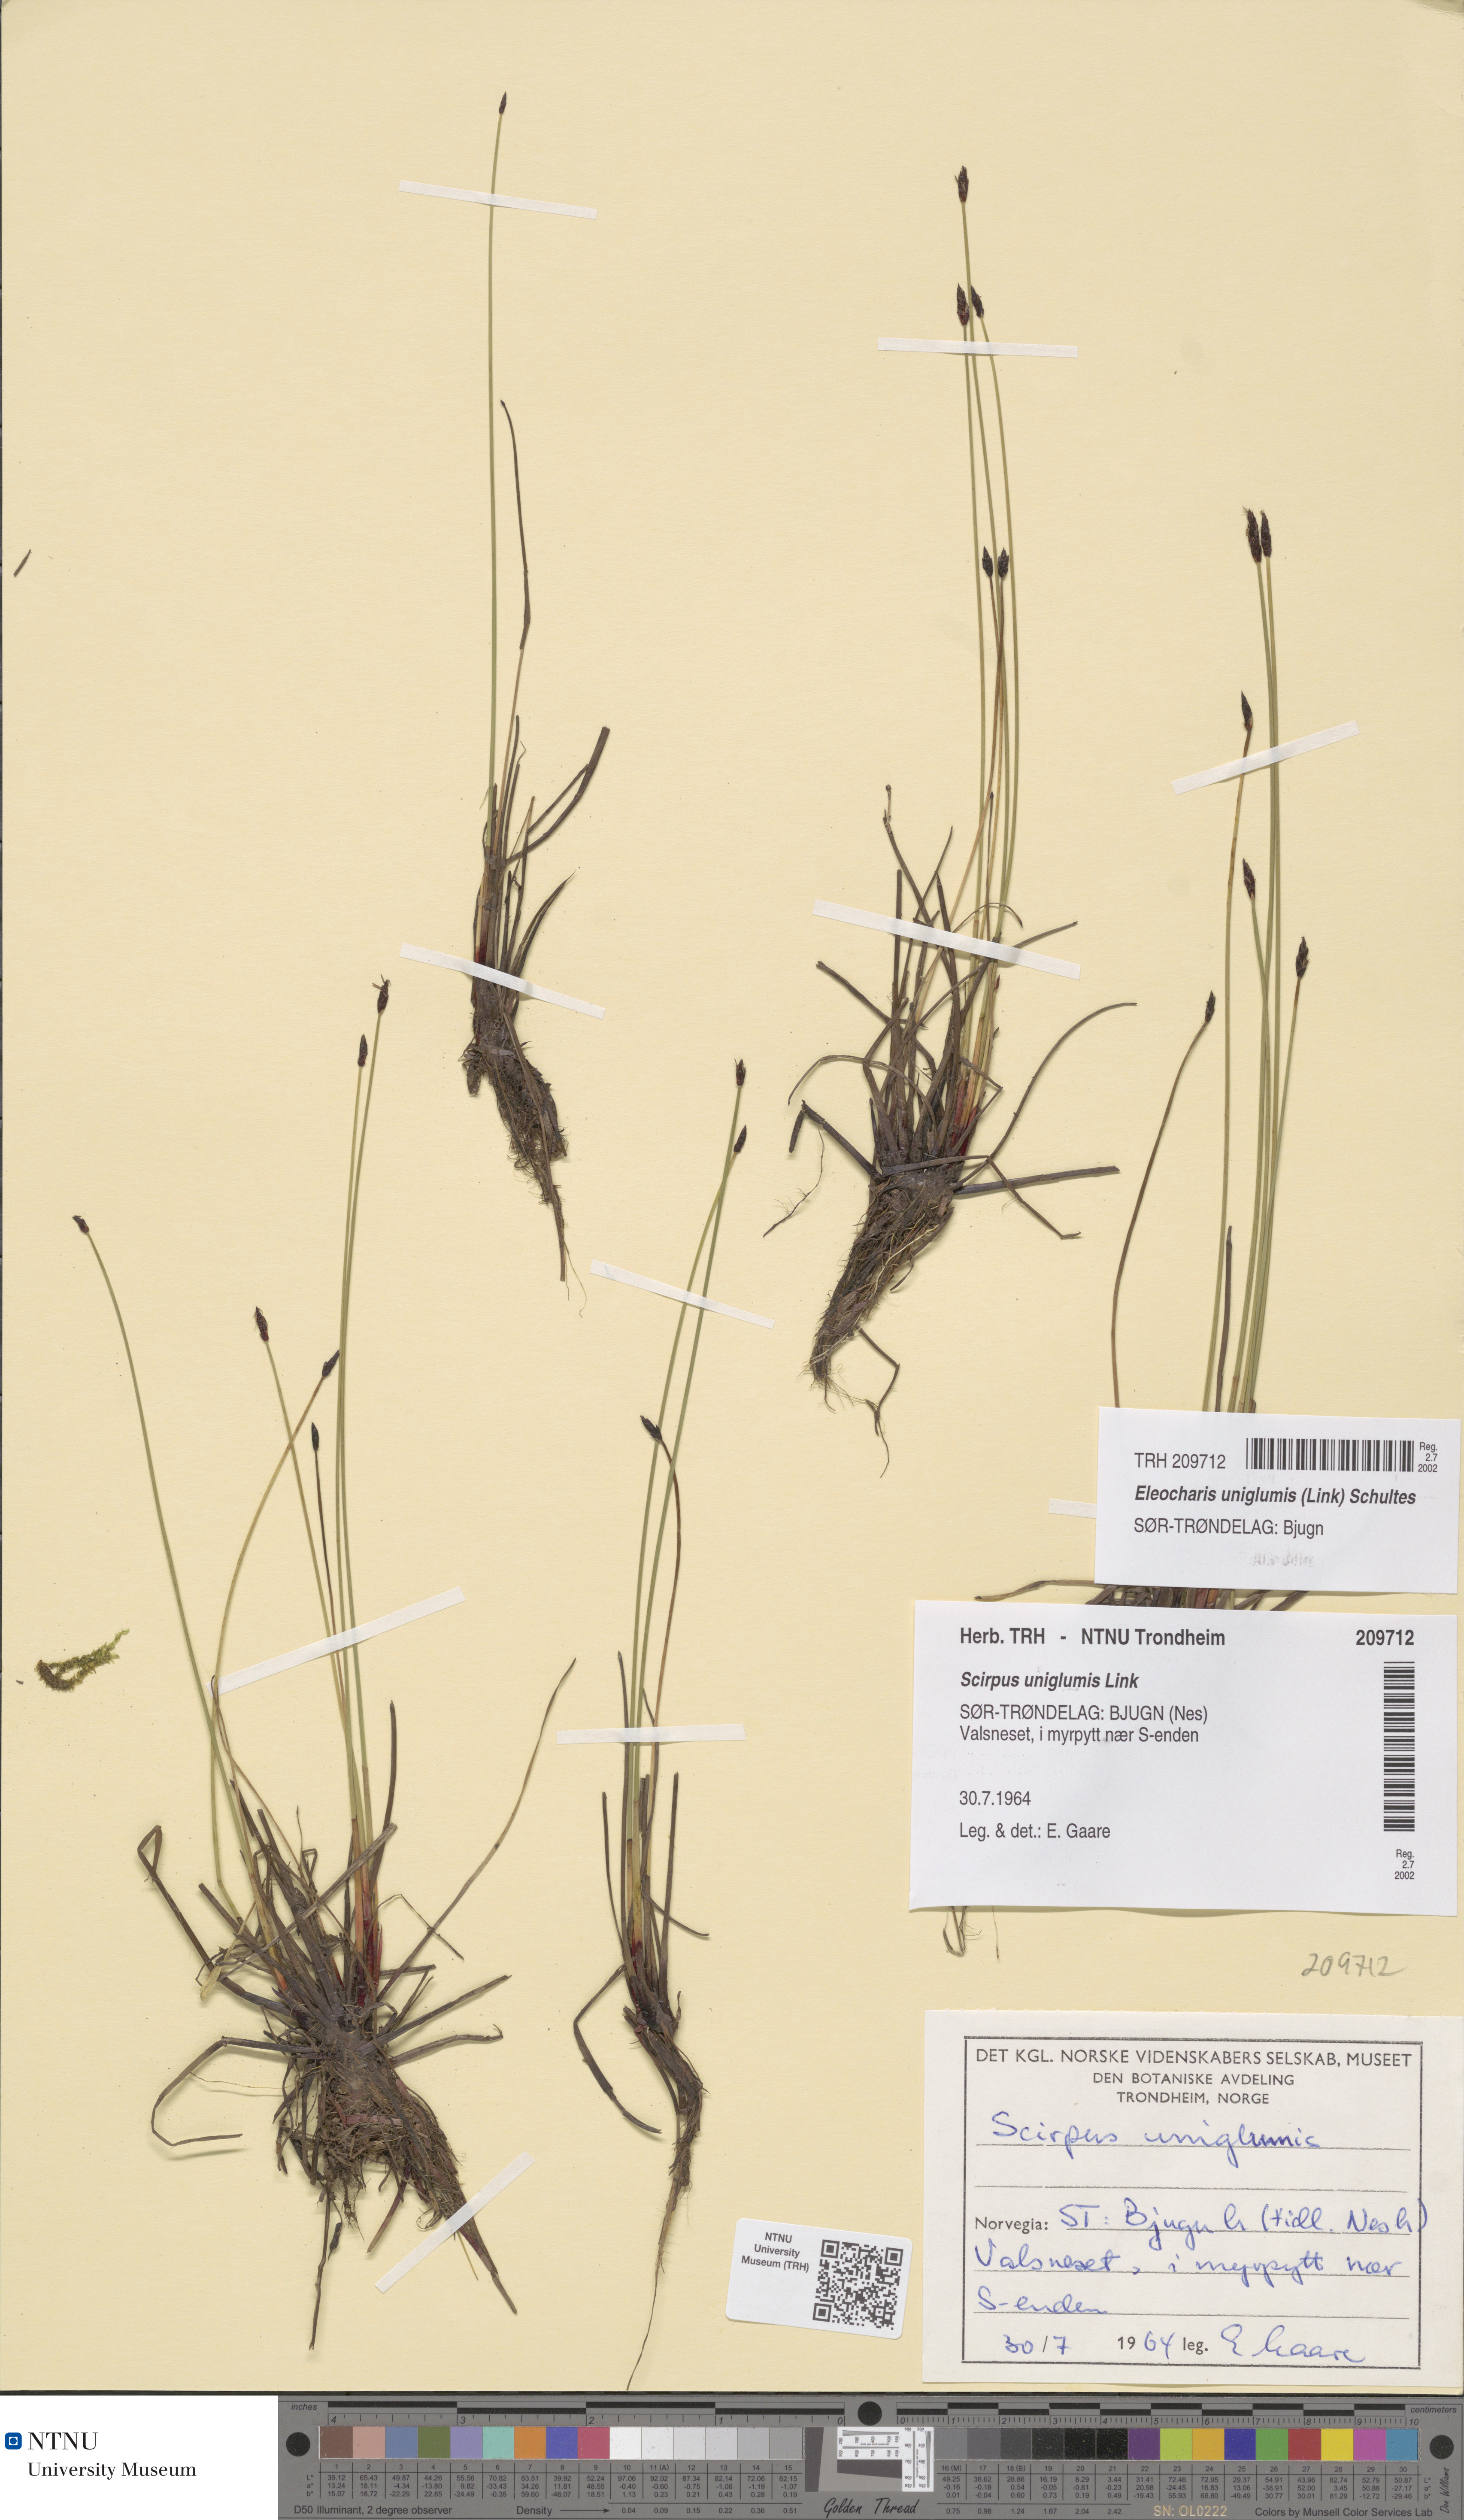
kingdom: Plantae
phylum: Tracheophyta
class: Liliopsida
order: Poales
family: Cyperaceae
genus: Eleocharis
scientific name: Eleocharis uniglumis
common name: Slender spike-rush
